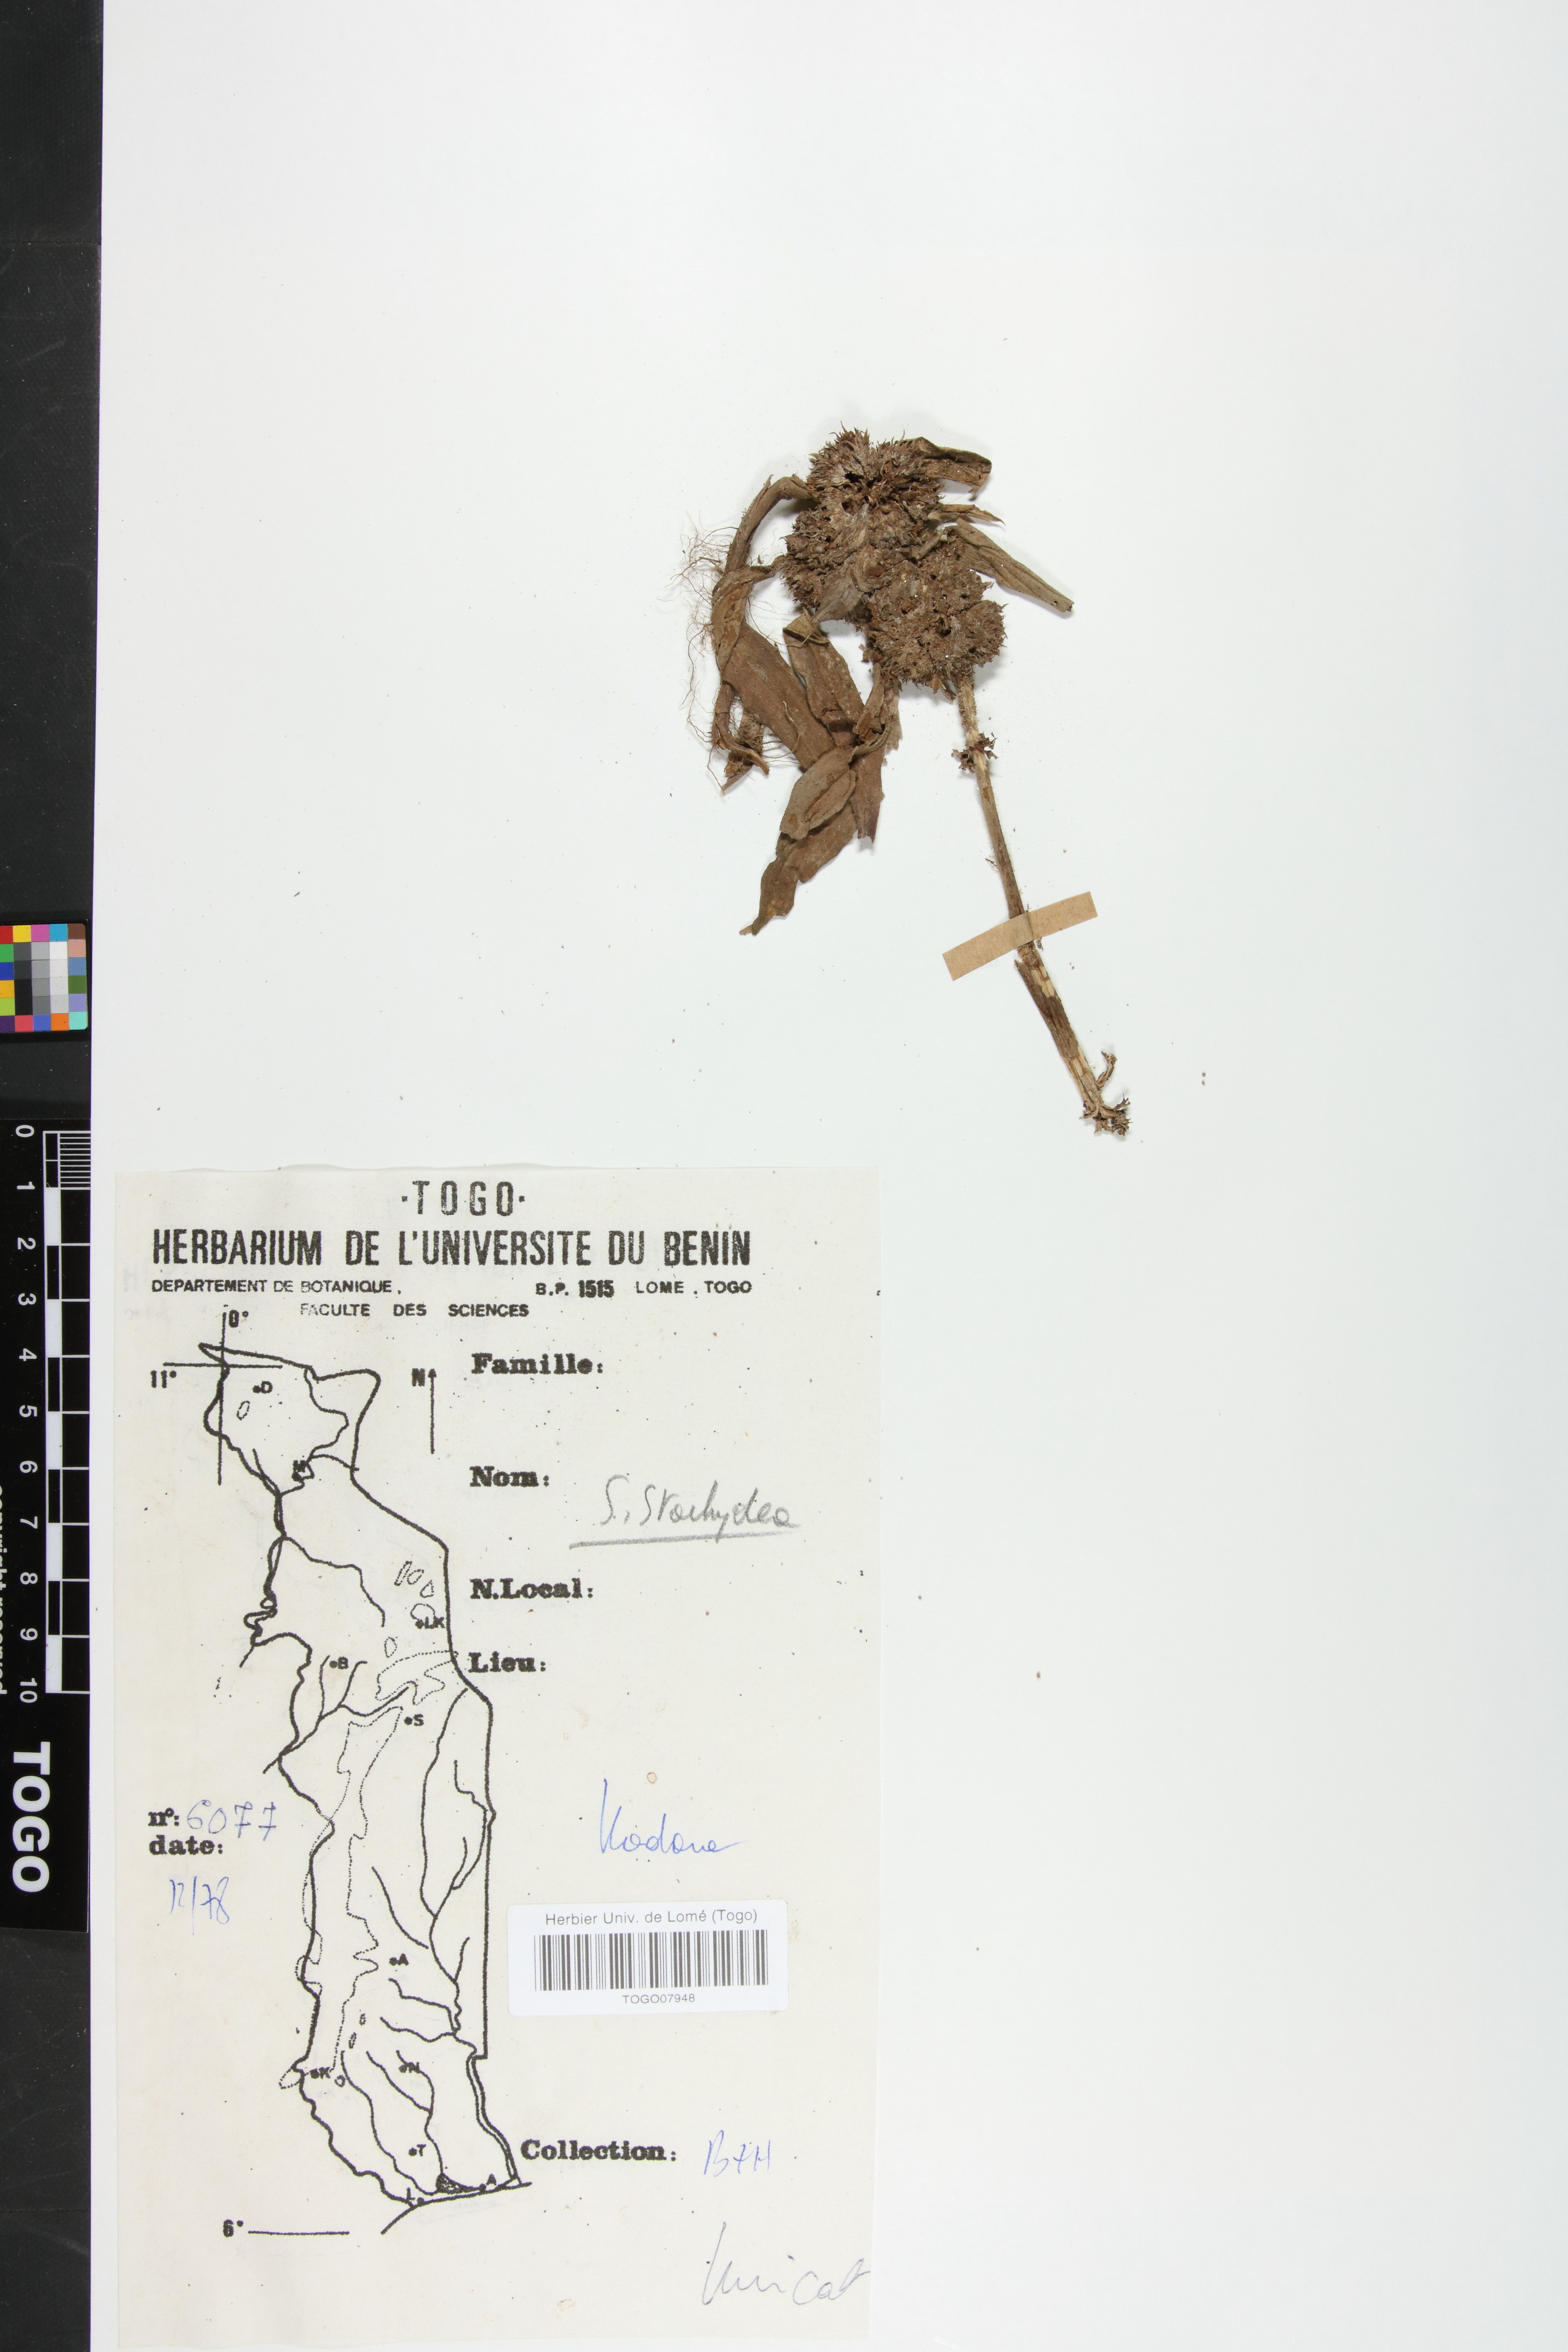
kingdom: Plantae
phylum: Tracheophyta
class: Magnoliopsida
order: Gentianales
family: Rubiaceae
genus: Spermacoce
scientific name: Spermacoce stachydea
